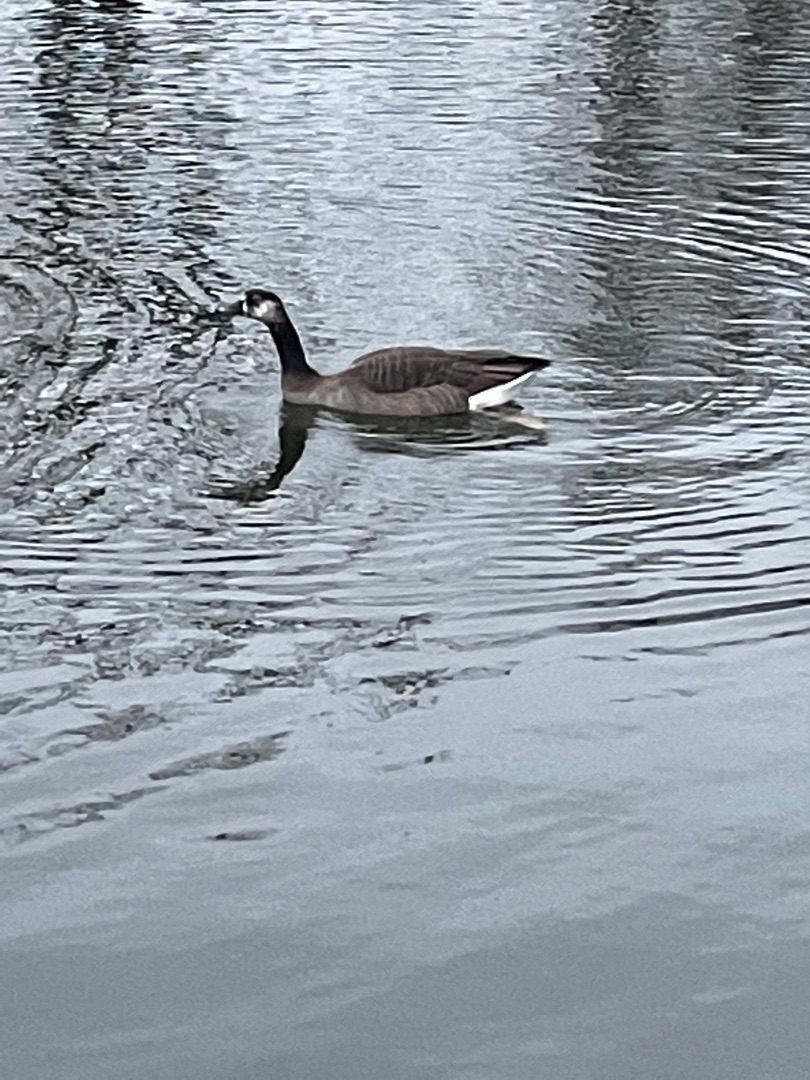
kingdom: Animalia
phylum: Chordata
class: Aves
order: Anseriformes
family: Anatidae
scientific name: Anatidae
